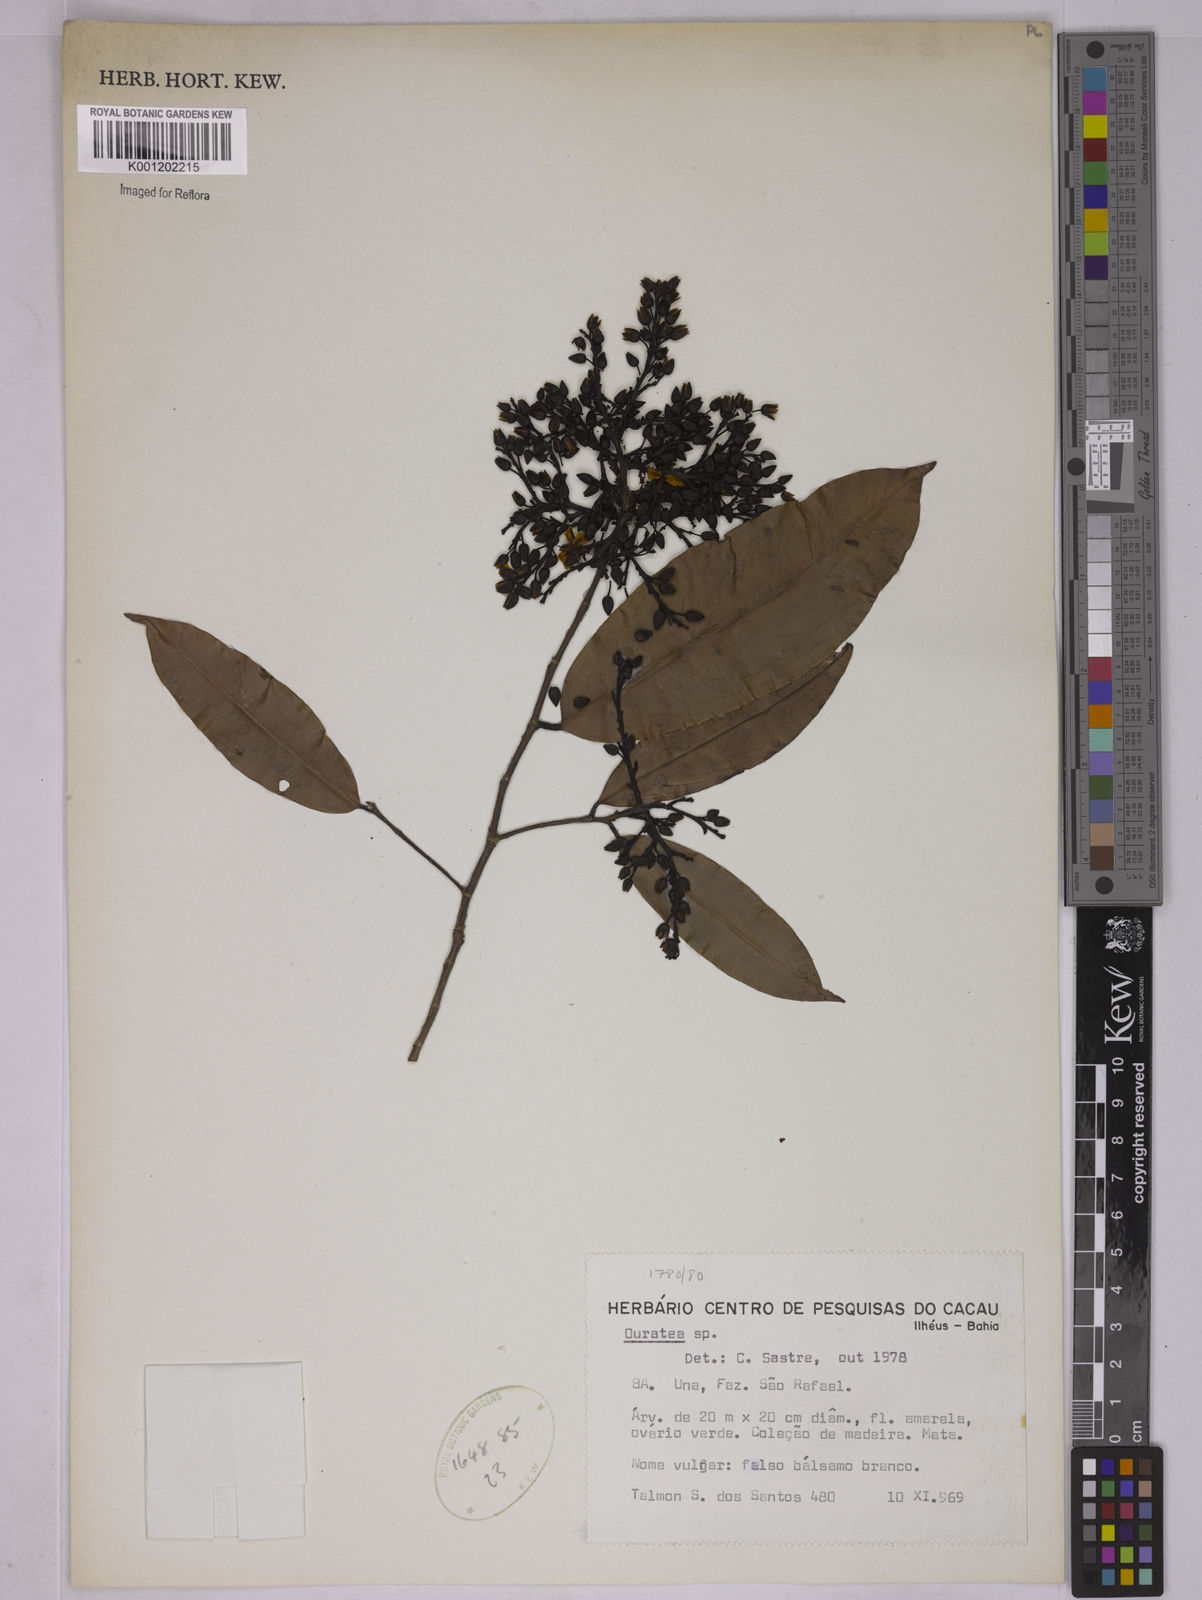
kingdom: Plantae
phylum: Tracheophyta
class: Magnoliopsida
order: Malpighiales
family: Ochnaceae
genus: Ouratea
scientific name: Ouratea
